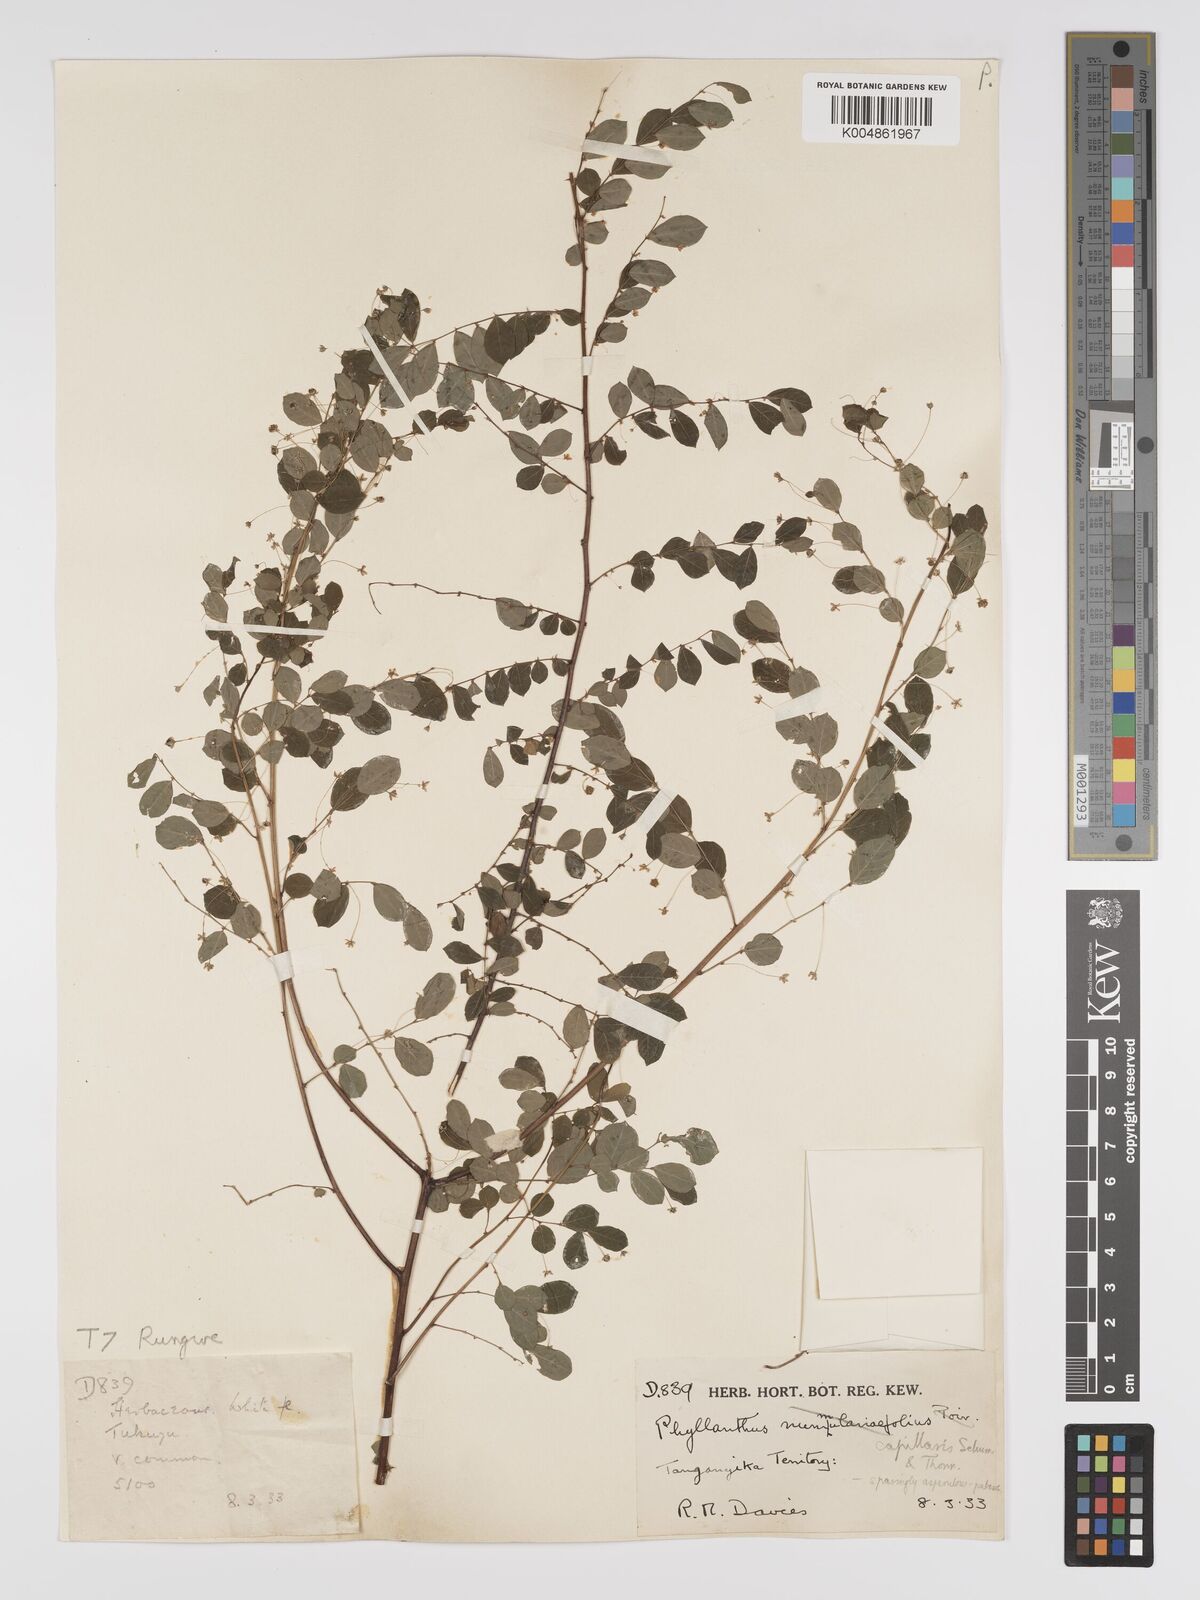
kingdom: Plantae
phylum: Tracheophyta
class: Magnoliopsida
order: Malpighiales
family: Phyllanthaceae
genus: Phyllanthus
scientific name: Phyllanthus nummulariifolius
